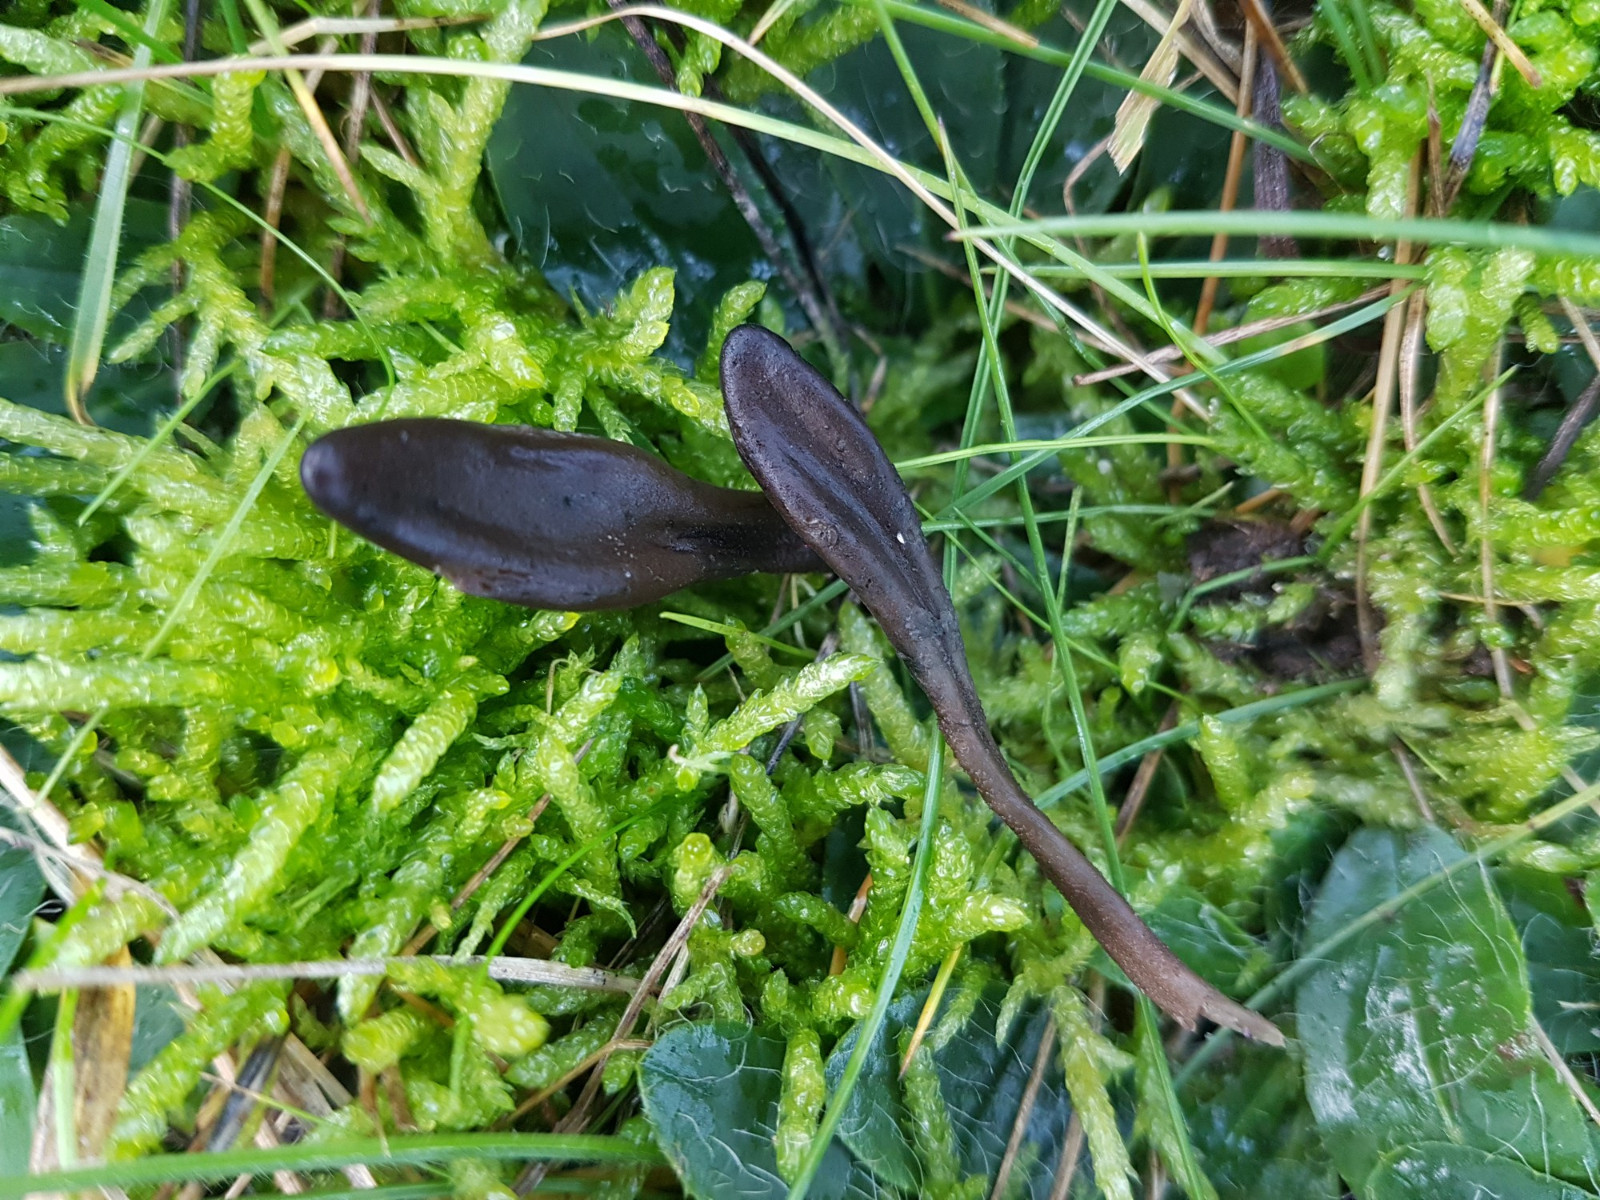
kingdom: Fungi
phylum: Ascomycota
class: Geoglossomycetes
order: Geoglossales
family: Geoglossaceae
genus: Geoglossum
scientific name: Geoglossum
